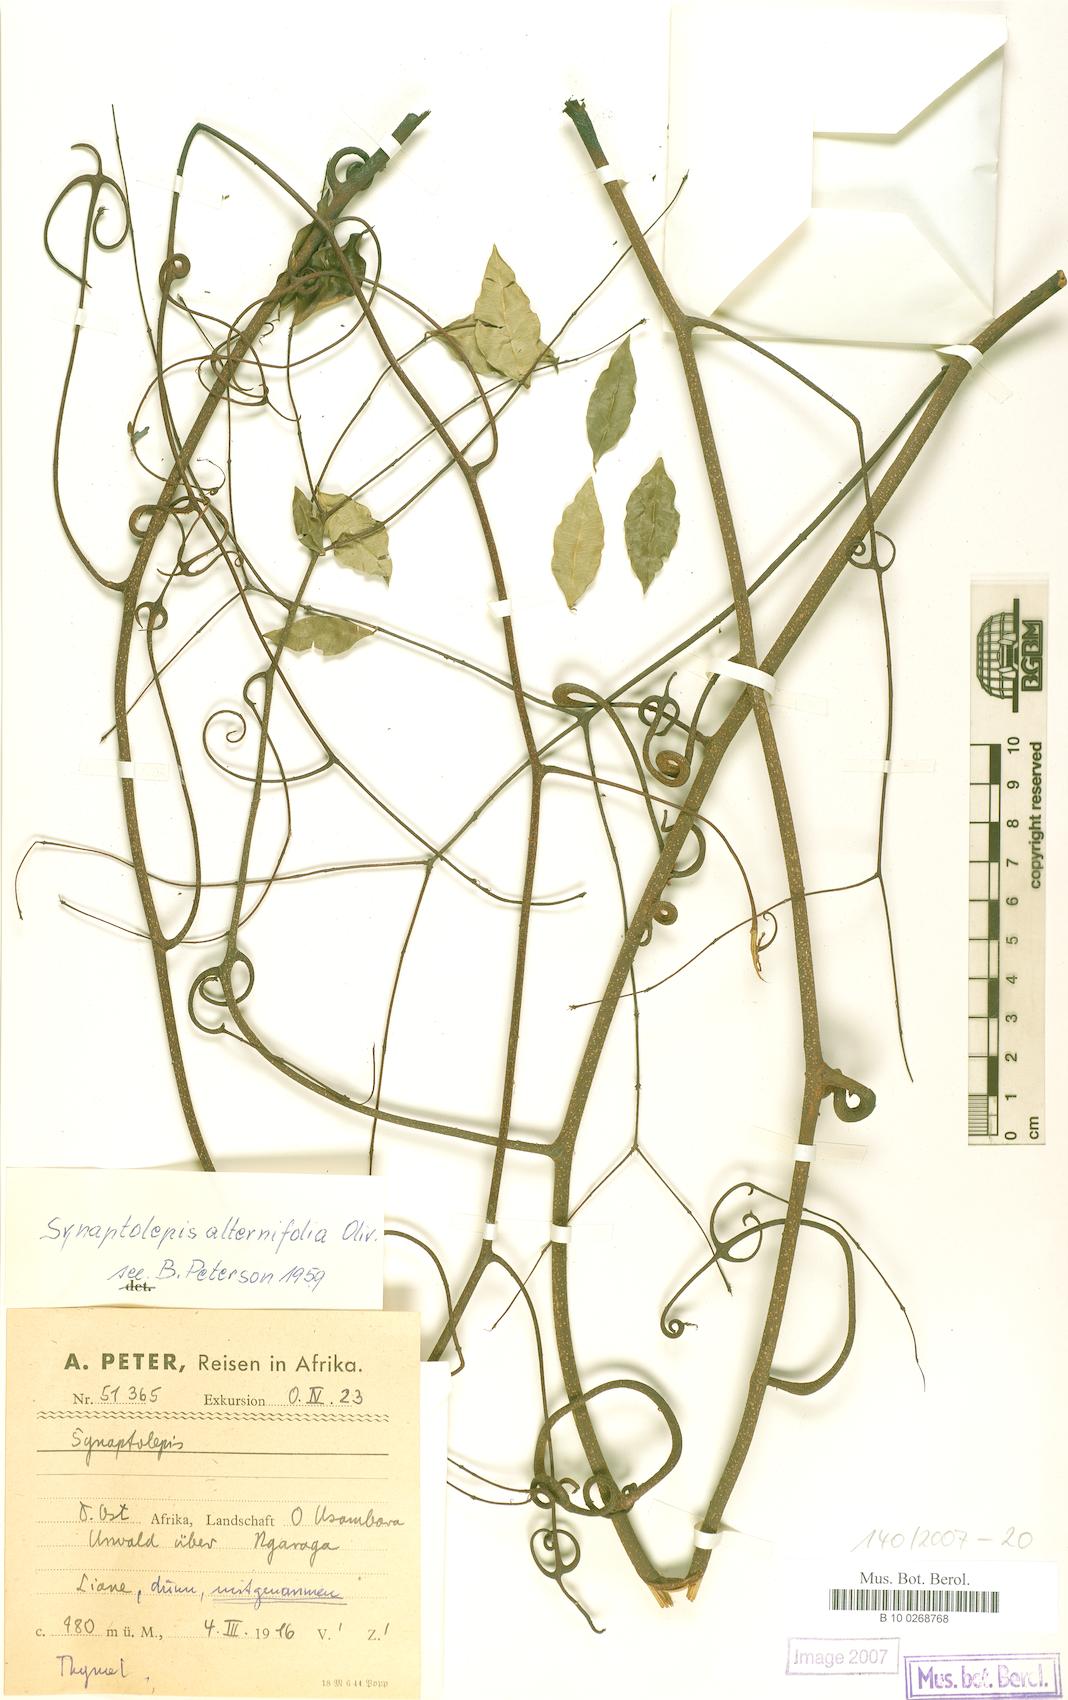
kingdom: Plantae
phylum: Tracheophyta
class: Magnoliopsida
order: Malvales
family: Thymelaeaceae
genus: Synaptolepis
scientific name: Synaptolepis alternifolia
